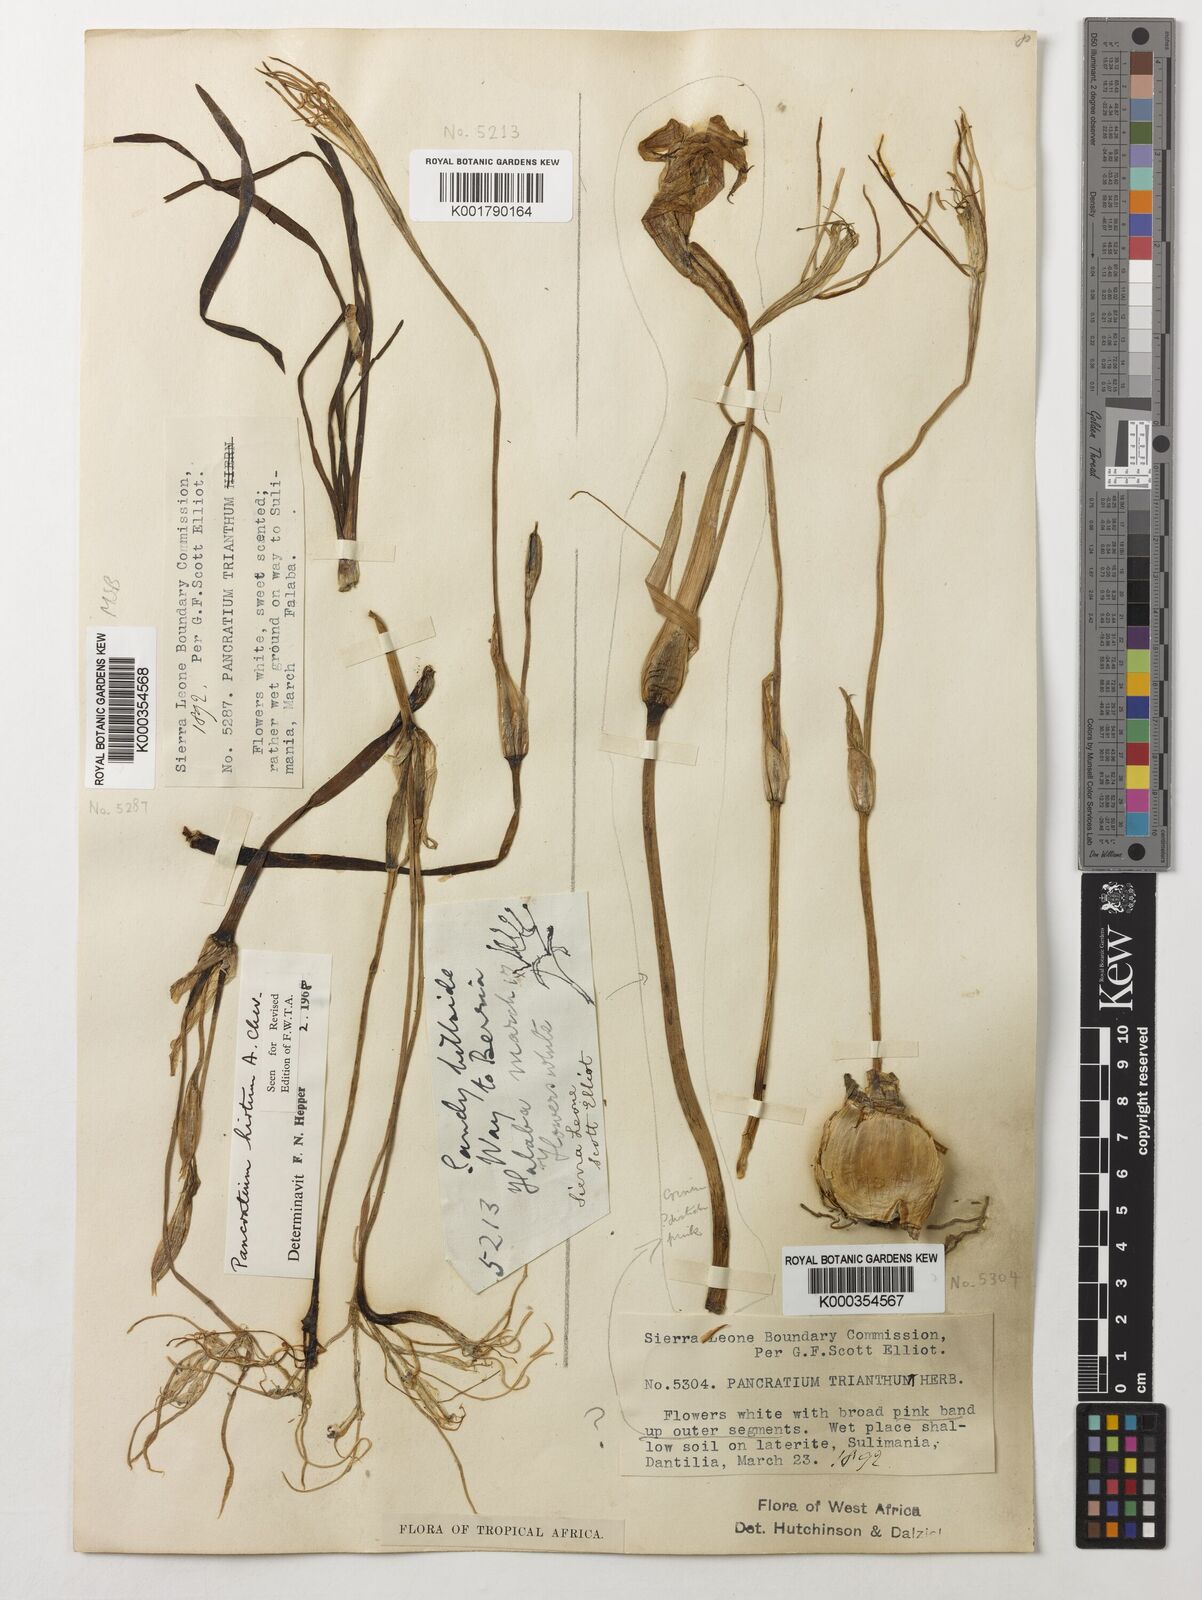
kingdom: Plantae
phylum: Tracheophyta
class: Liliopsida
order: Asparagales
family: Amaryllidaceae
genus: Pancratium
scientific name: Pancratium tenuifolium
